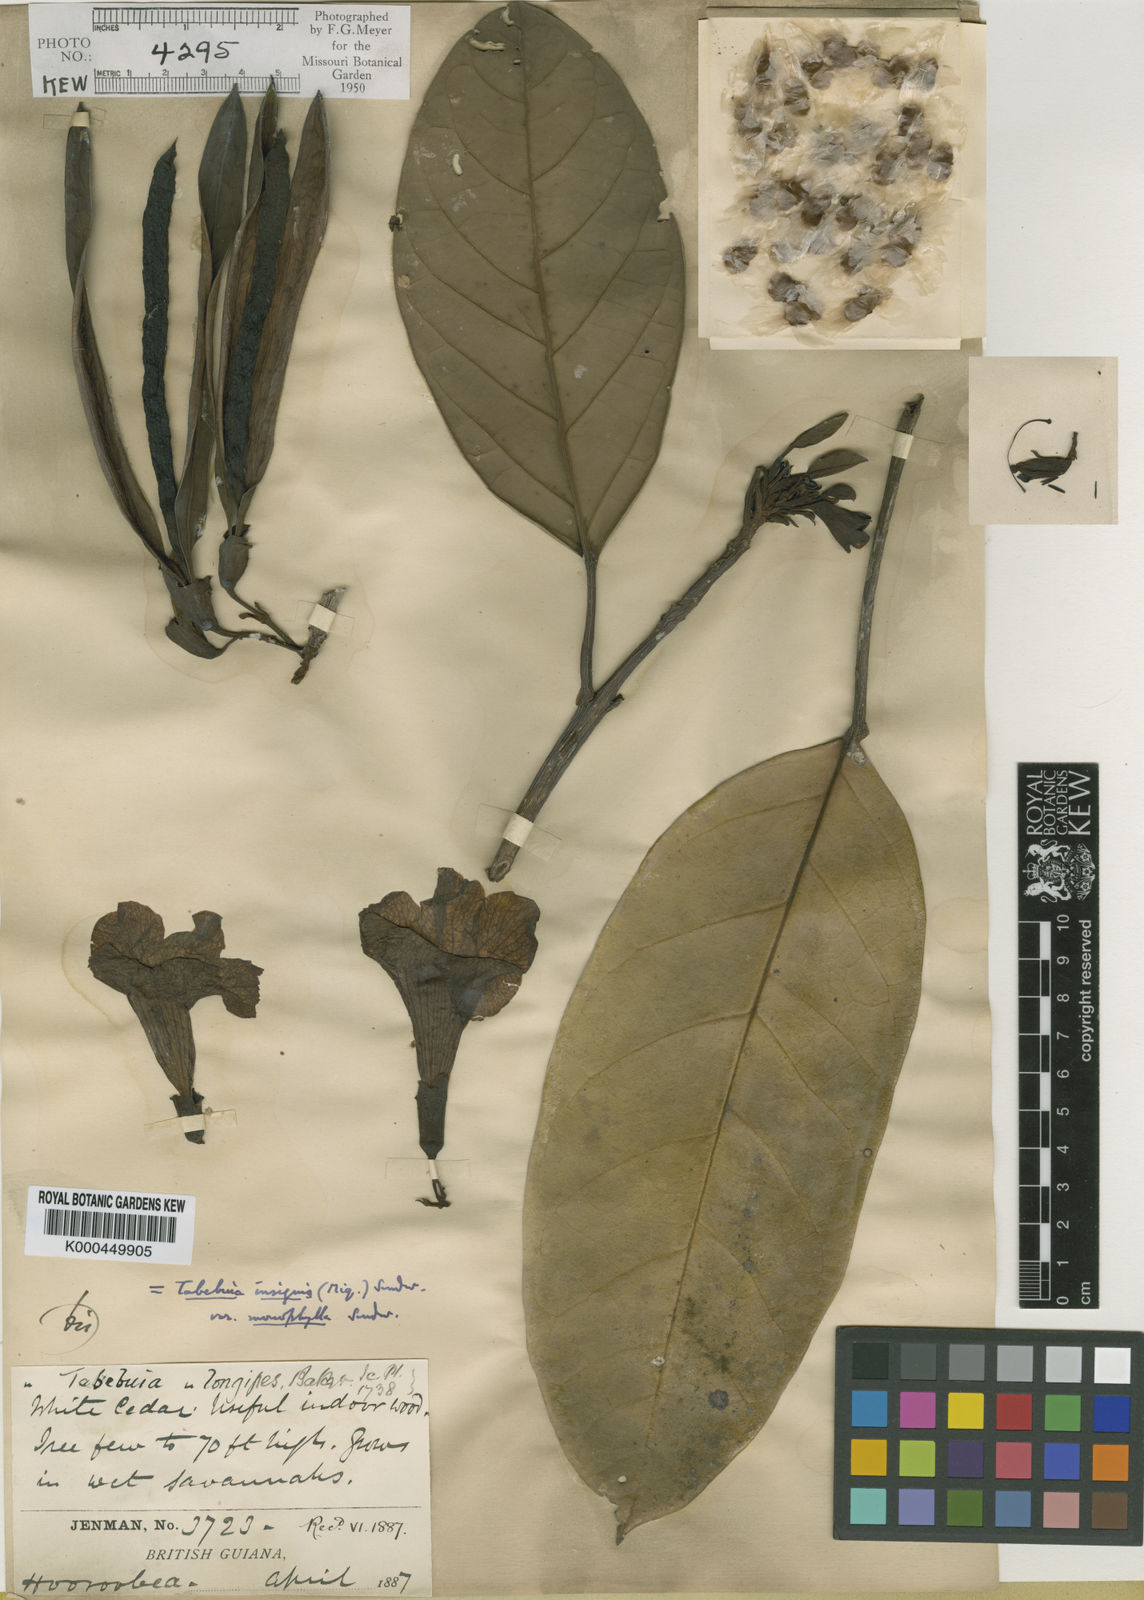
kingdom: Plantae
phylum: Tracheophyta
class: Magnoliopsida
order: Lamiales
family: Bignoniaceae
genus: Tabebuia
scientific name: Tabebuia insignis
